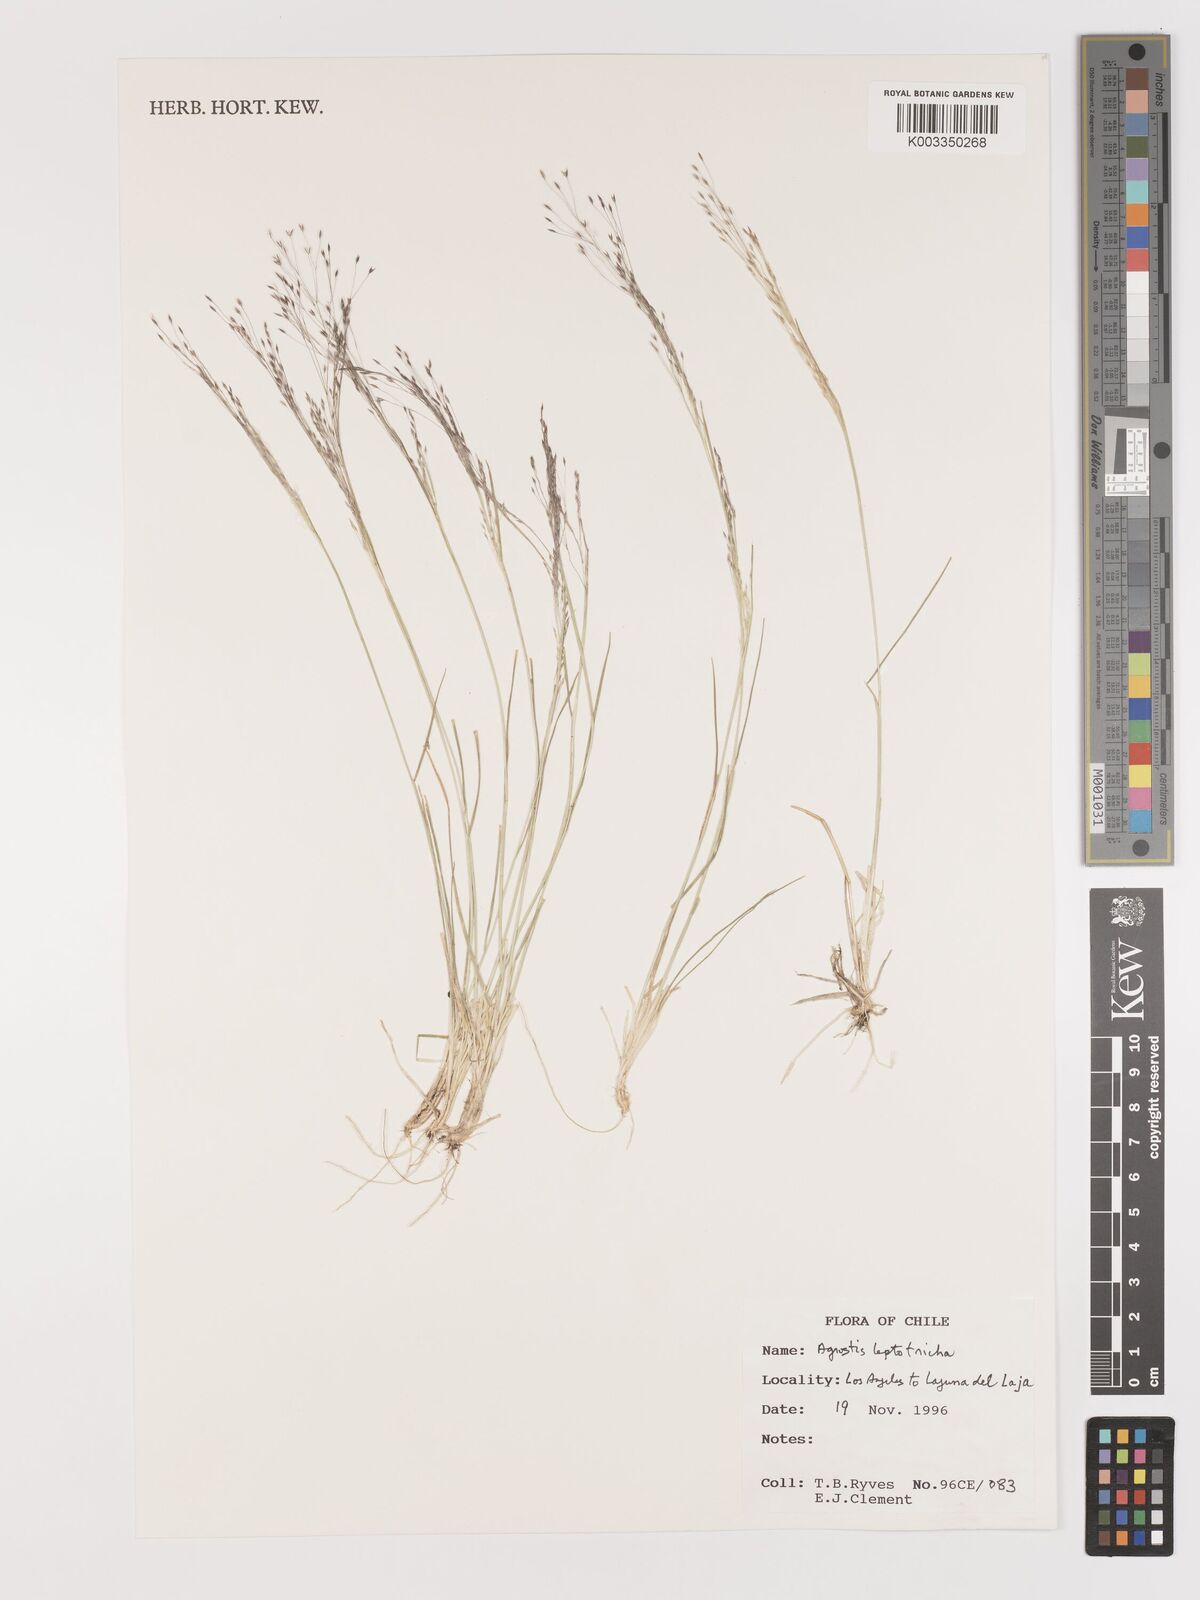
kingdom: Plantae
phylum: Tracheophyta
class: Liliopsida
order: Poales
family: Poaceae
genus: Agrostis
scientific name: Agrostis leptotricha
